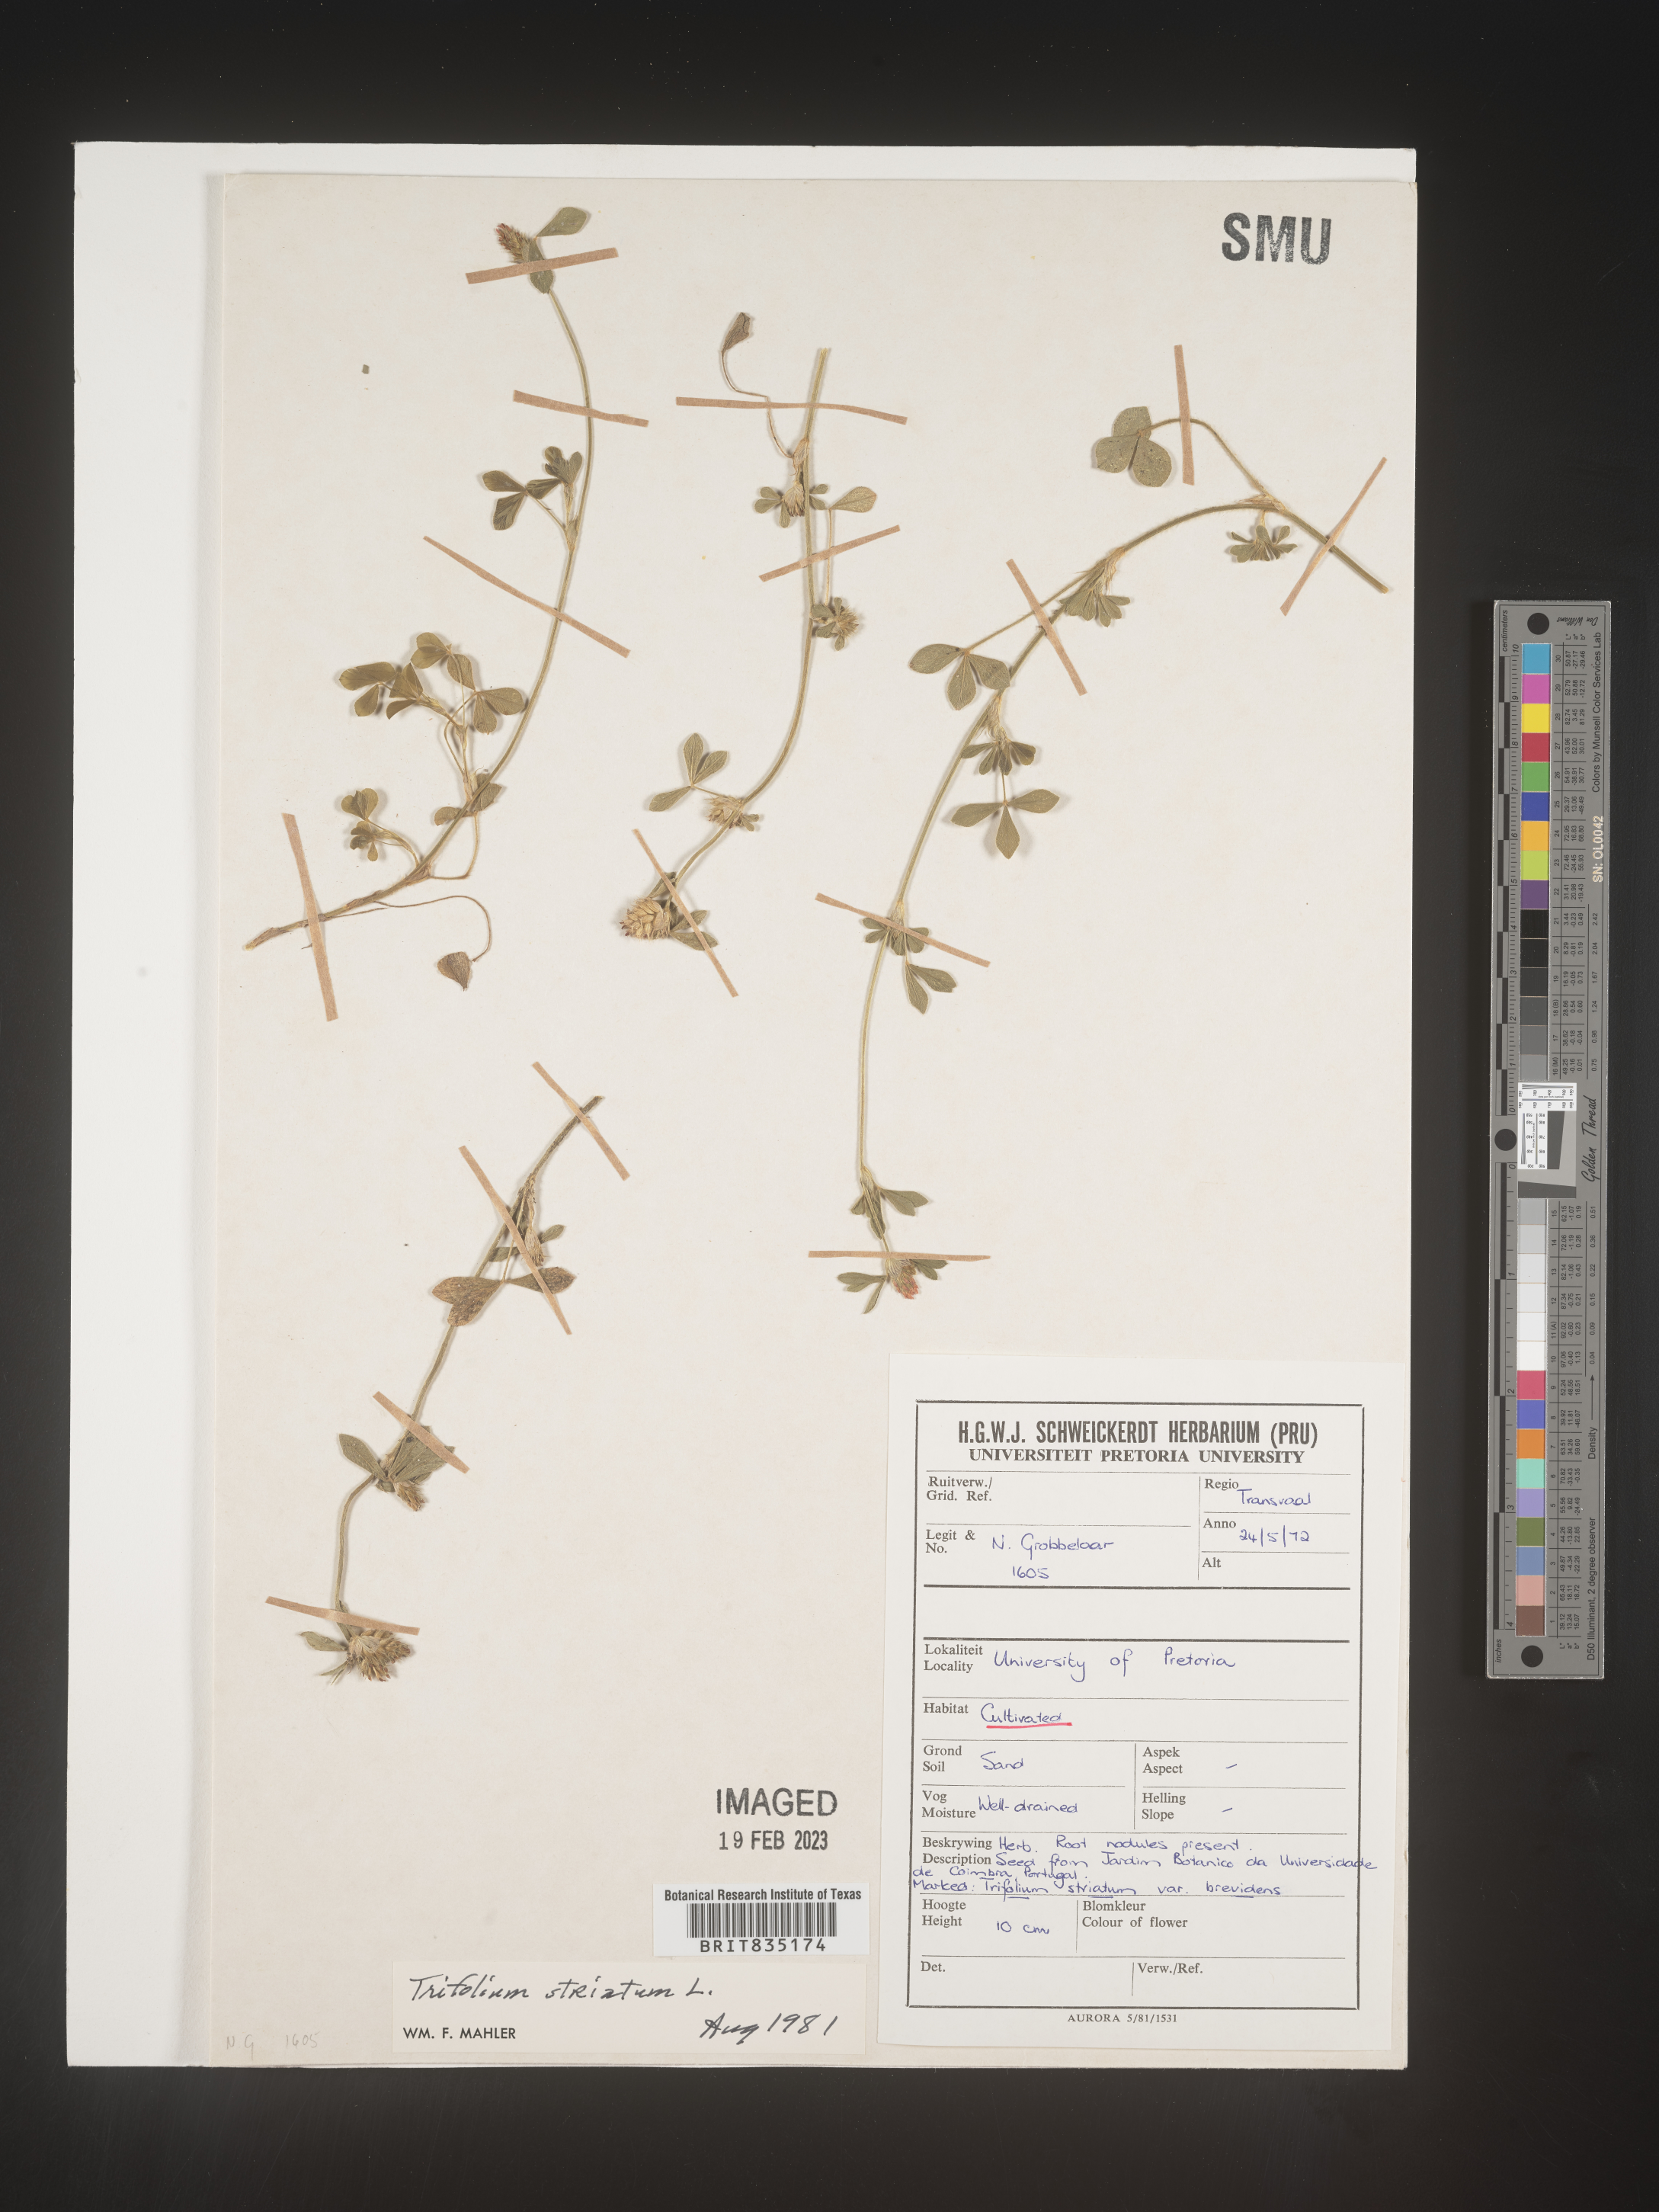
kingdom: Plantae
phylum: Tracheophyta
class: Magnoliopsida
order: Fabales
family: Fabaceae
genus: Trifolium
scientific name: Trifolium
